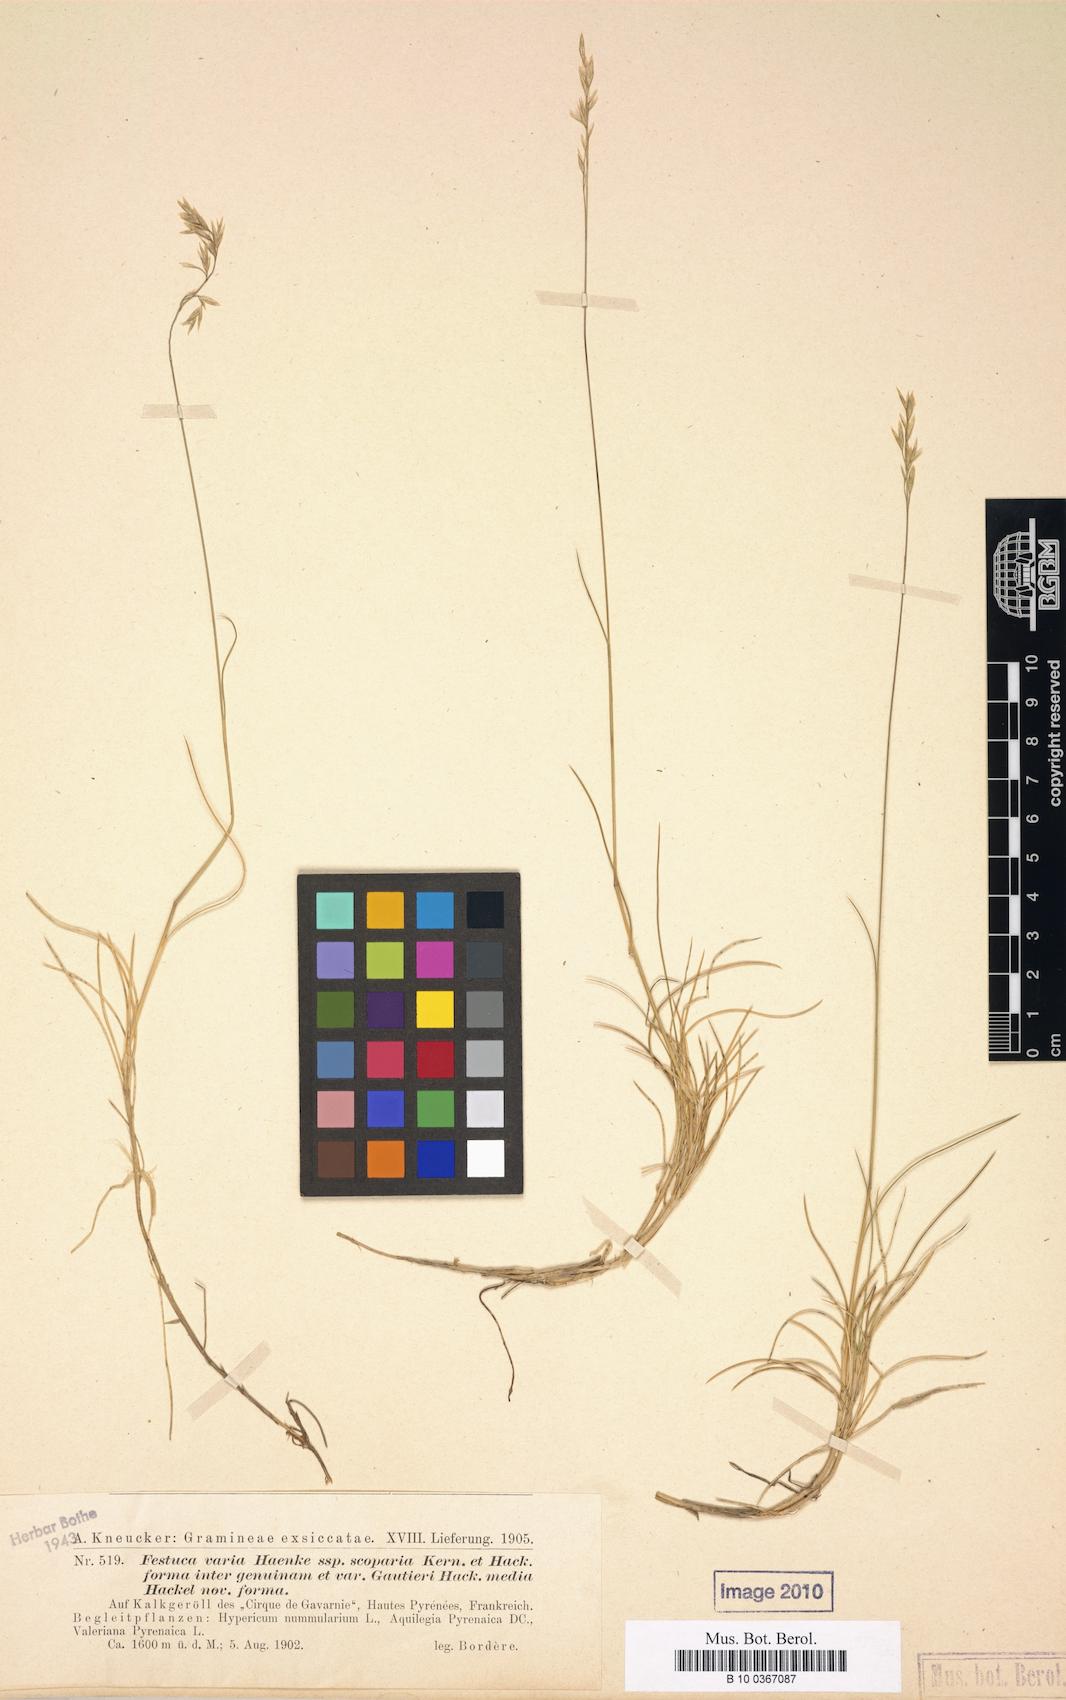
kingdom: Plantae
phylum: Tracheophyta
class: Liliopsida
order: Poales
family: Poaceae
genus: Festuca
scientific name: Festuca varia
